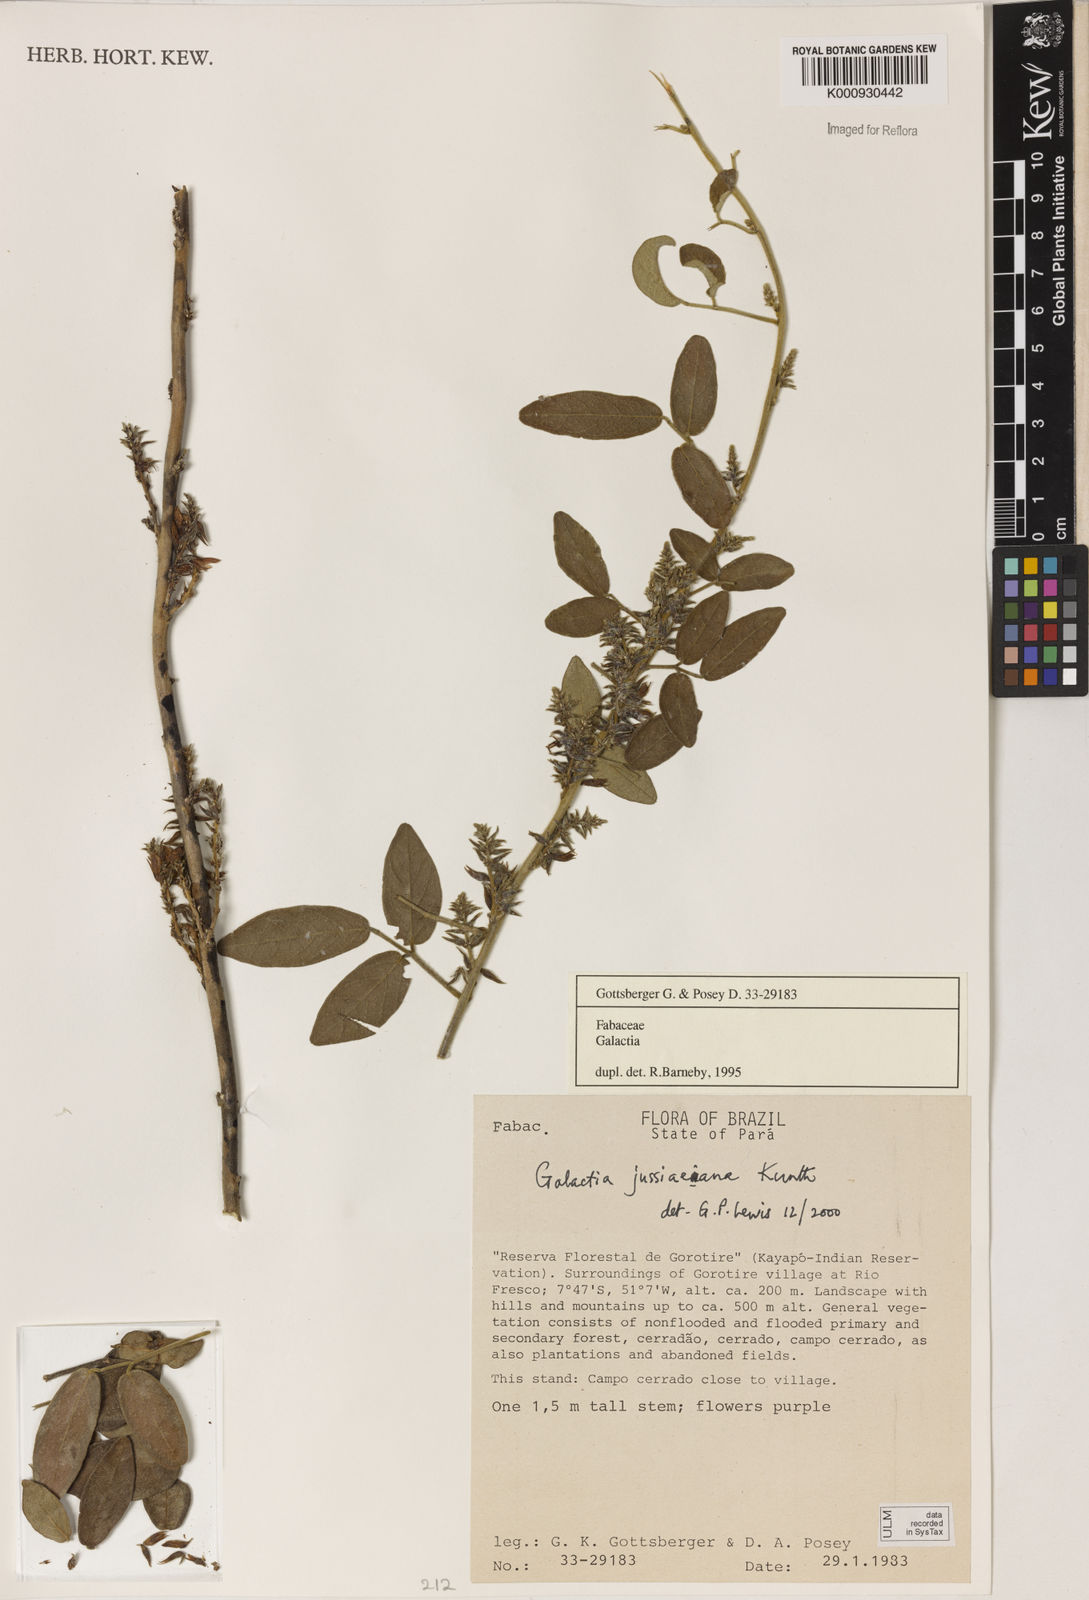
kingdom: Plantae
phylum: Tracheophyta
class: Magnoliopsida
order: Fabales
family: Fabaceae
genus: Galactia
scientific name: Galactia jussiaeana
